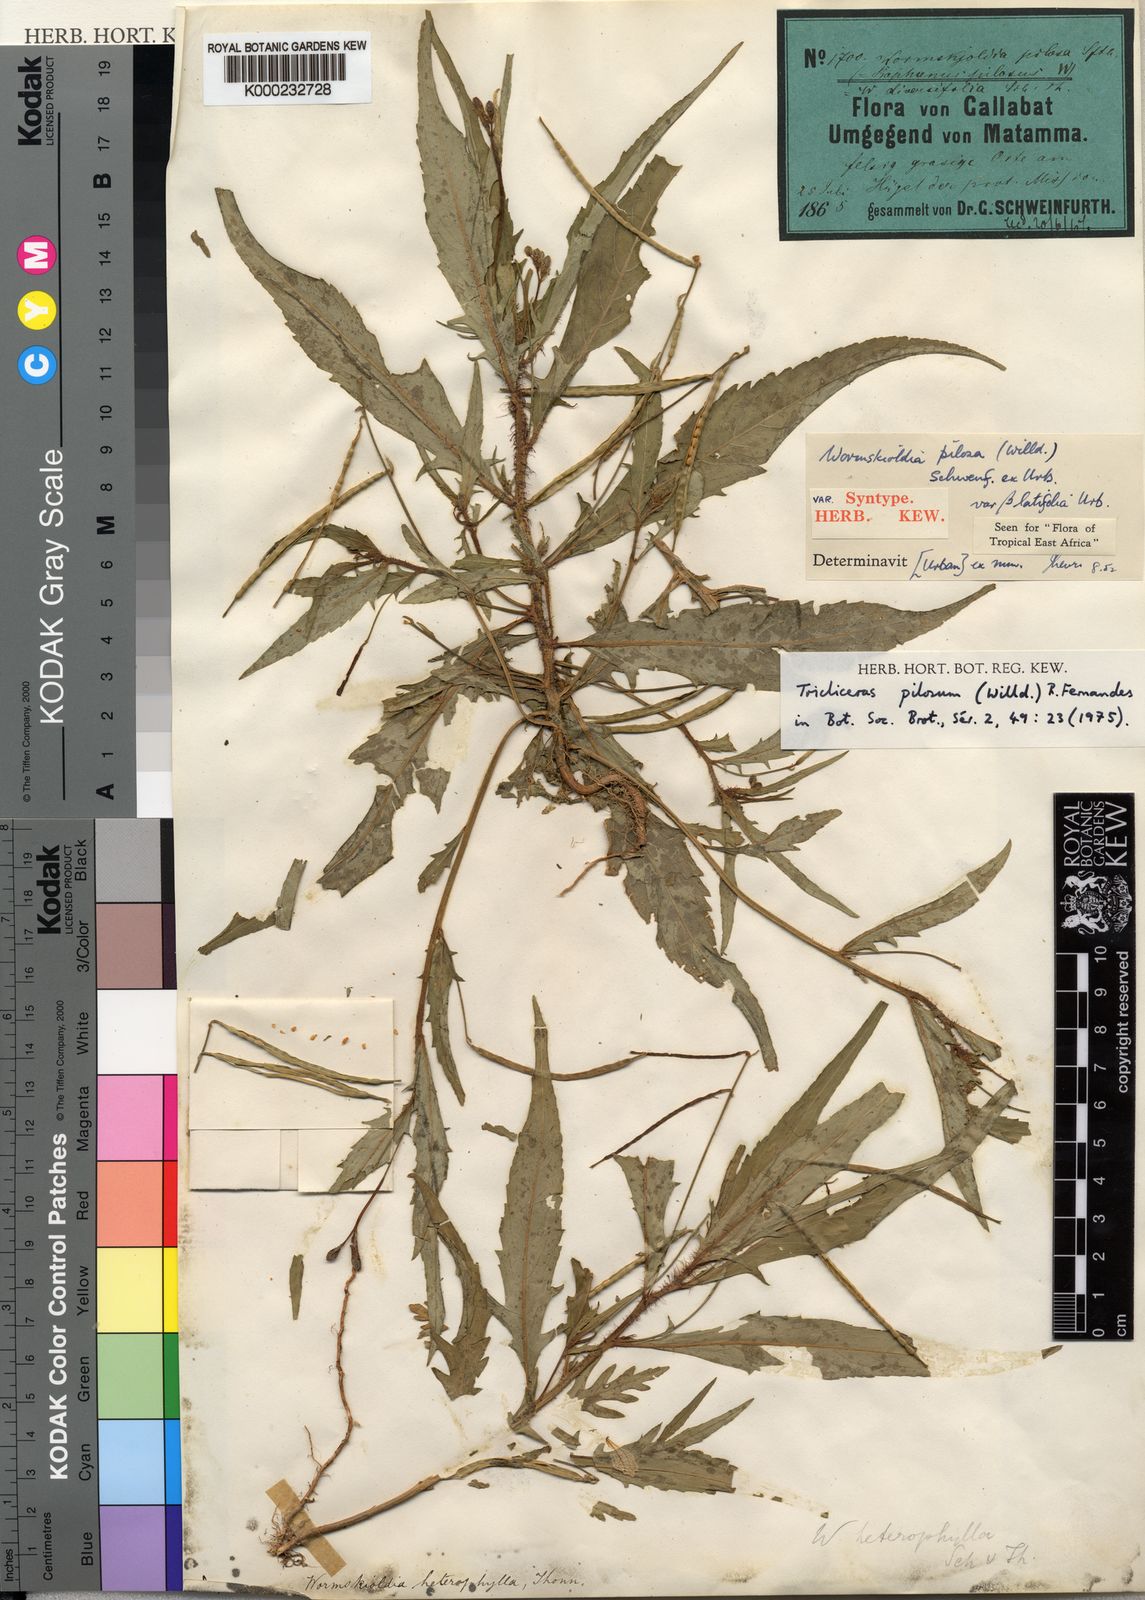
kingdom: Plantae
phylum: Tracheophyta
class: Magnoliopsida
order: Malpighiales
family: Turneraceae
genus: Tricliceras
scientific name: Tricliceras pilosum
